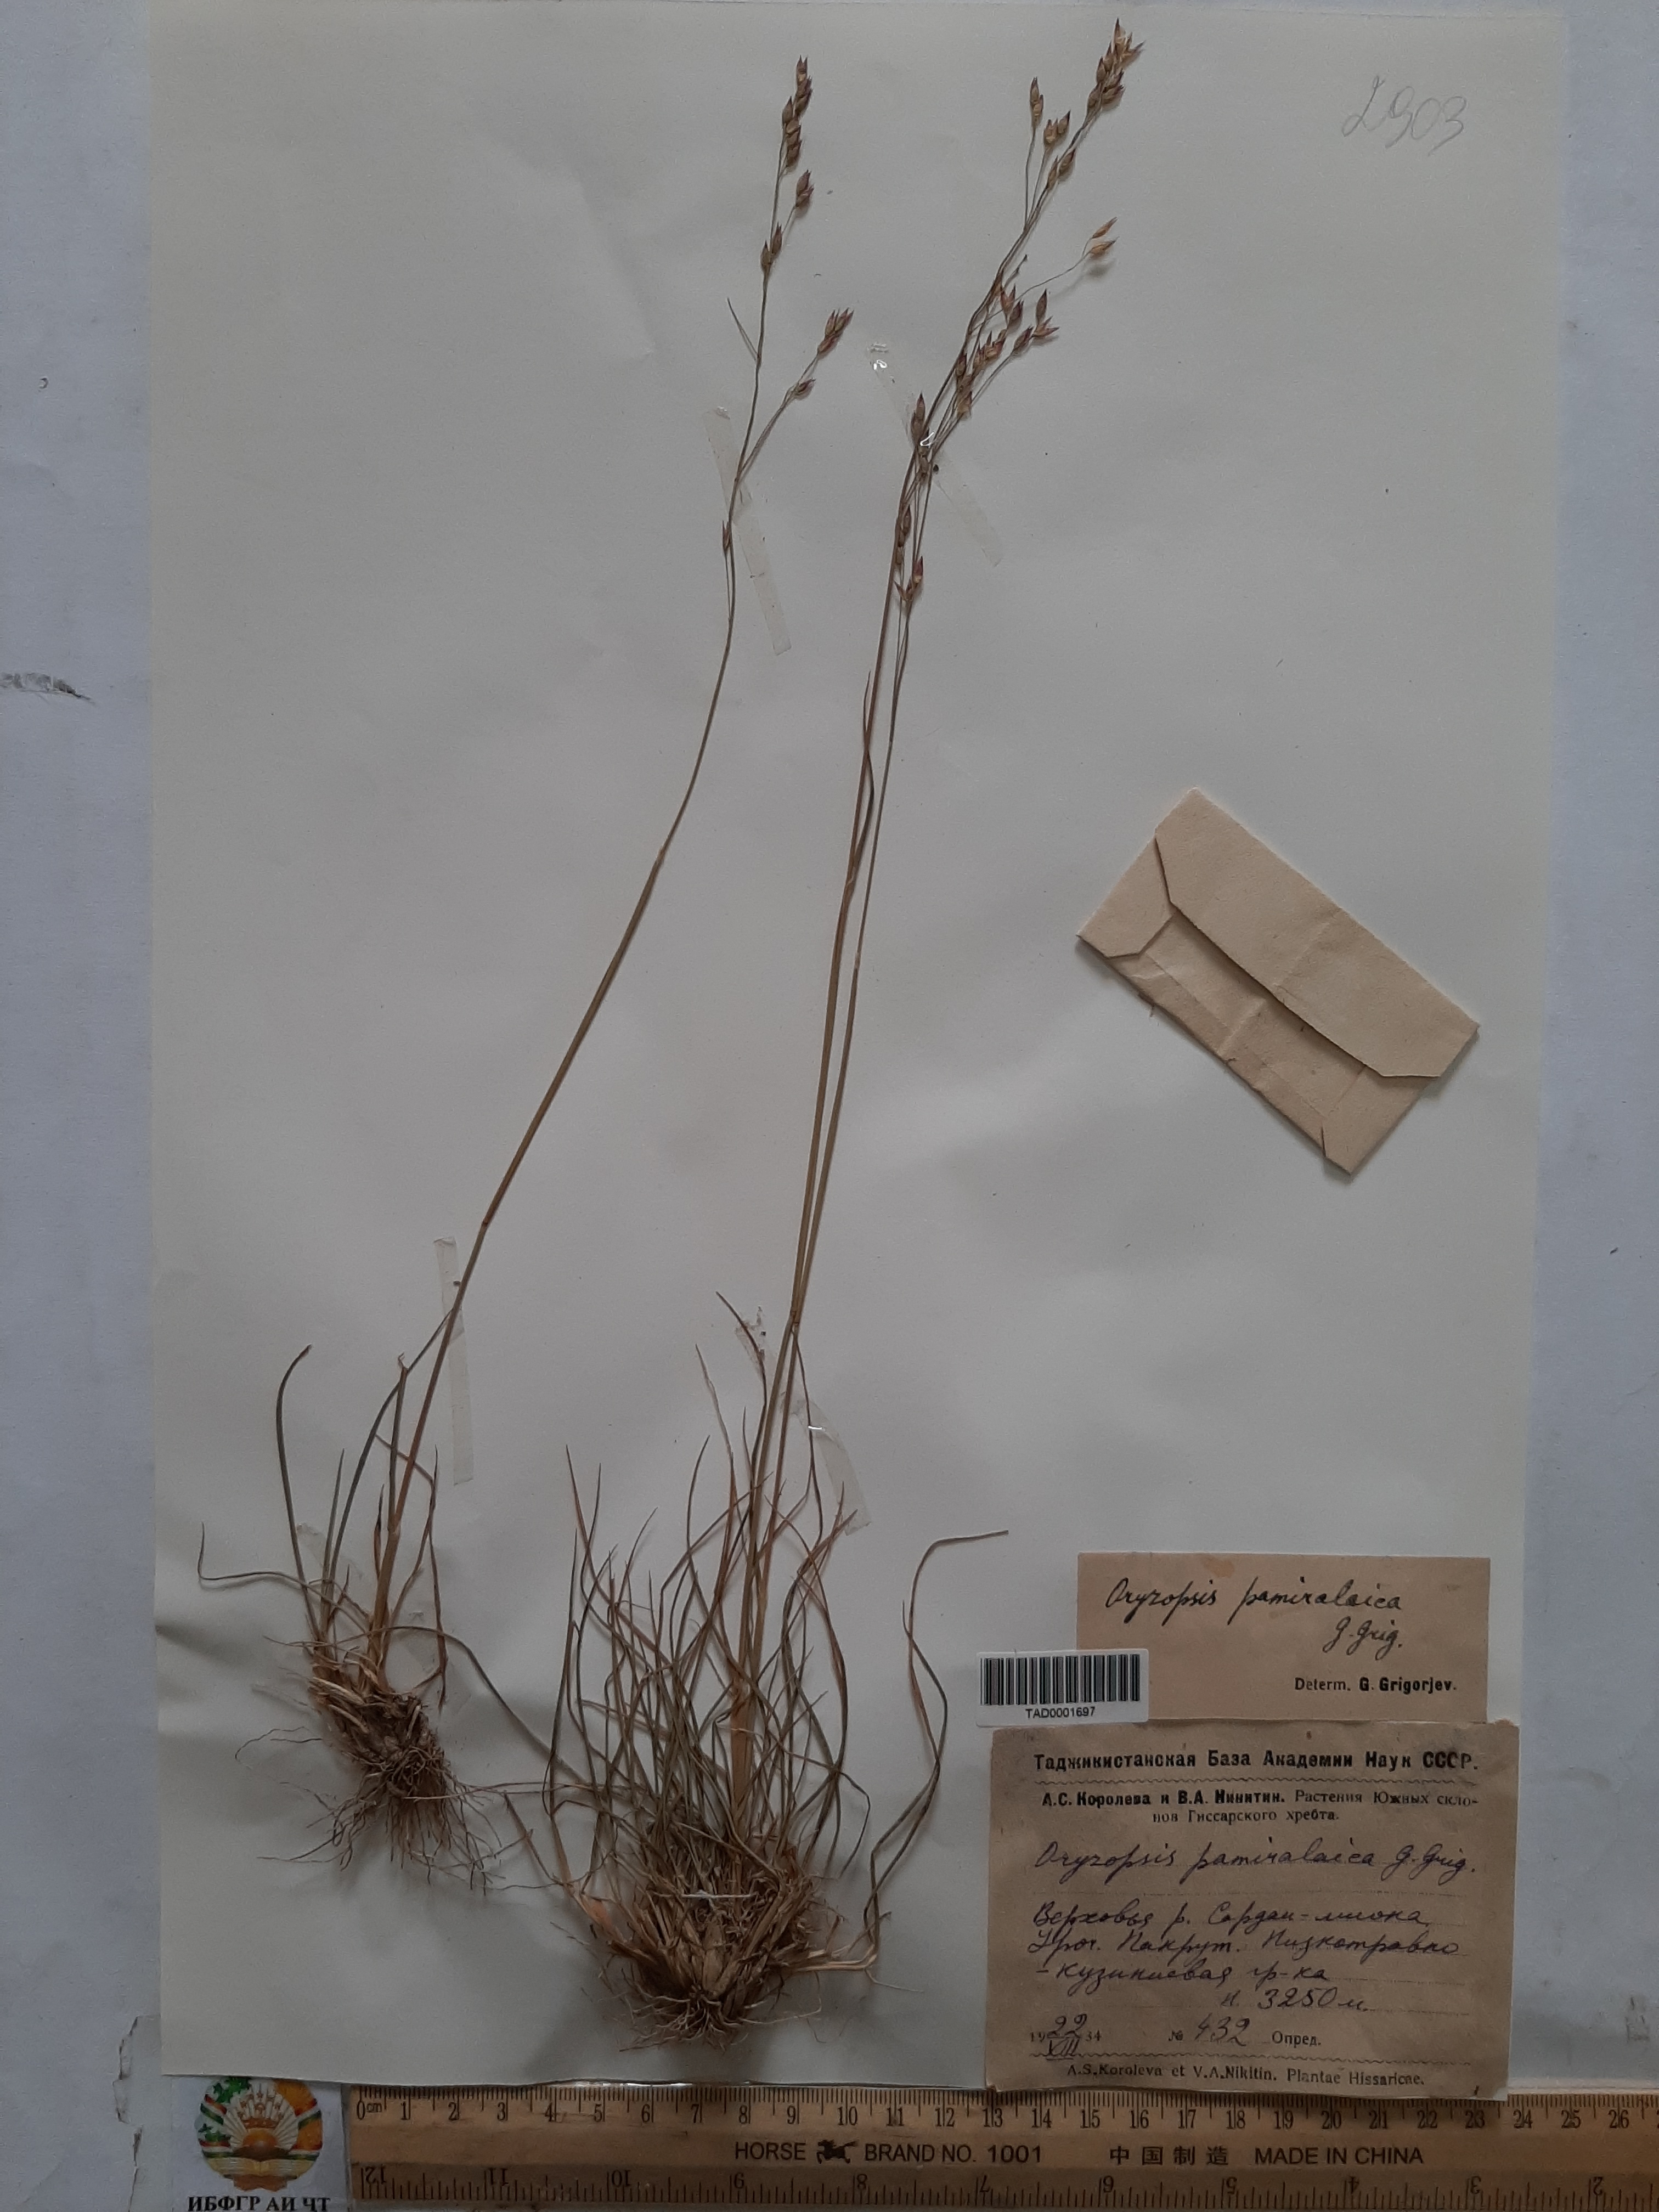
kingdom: Plantae
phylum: Tracheophyta
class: Liliopsida
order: Poales
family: Poaceae
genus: Piptatherum
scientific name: Piptatherum pamiralaicum
